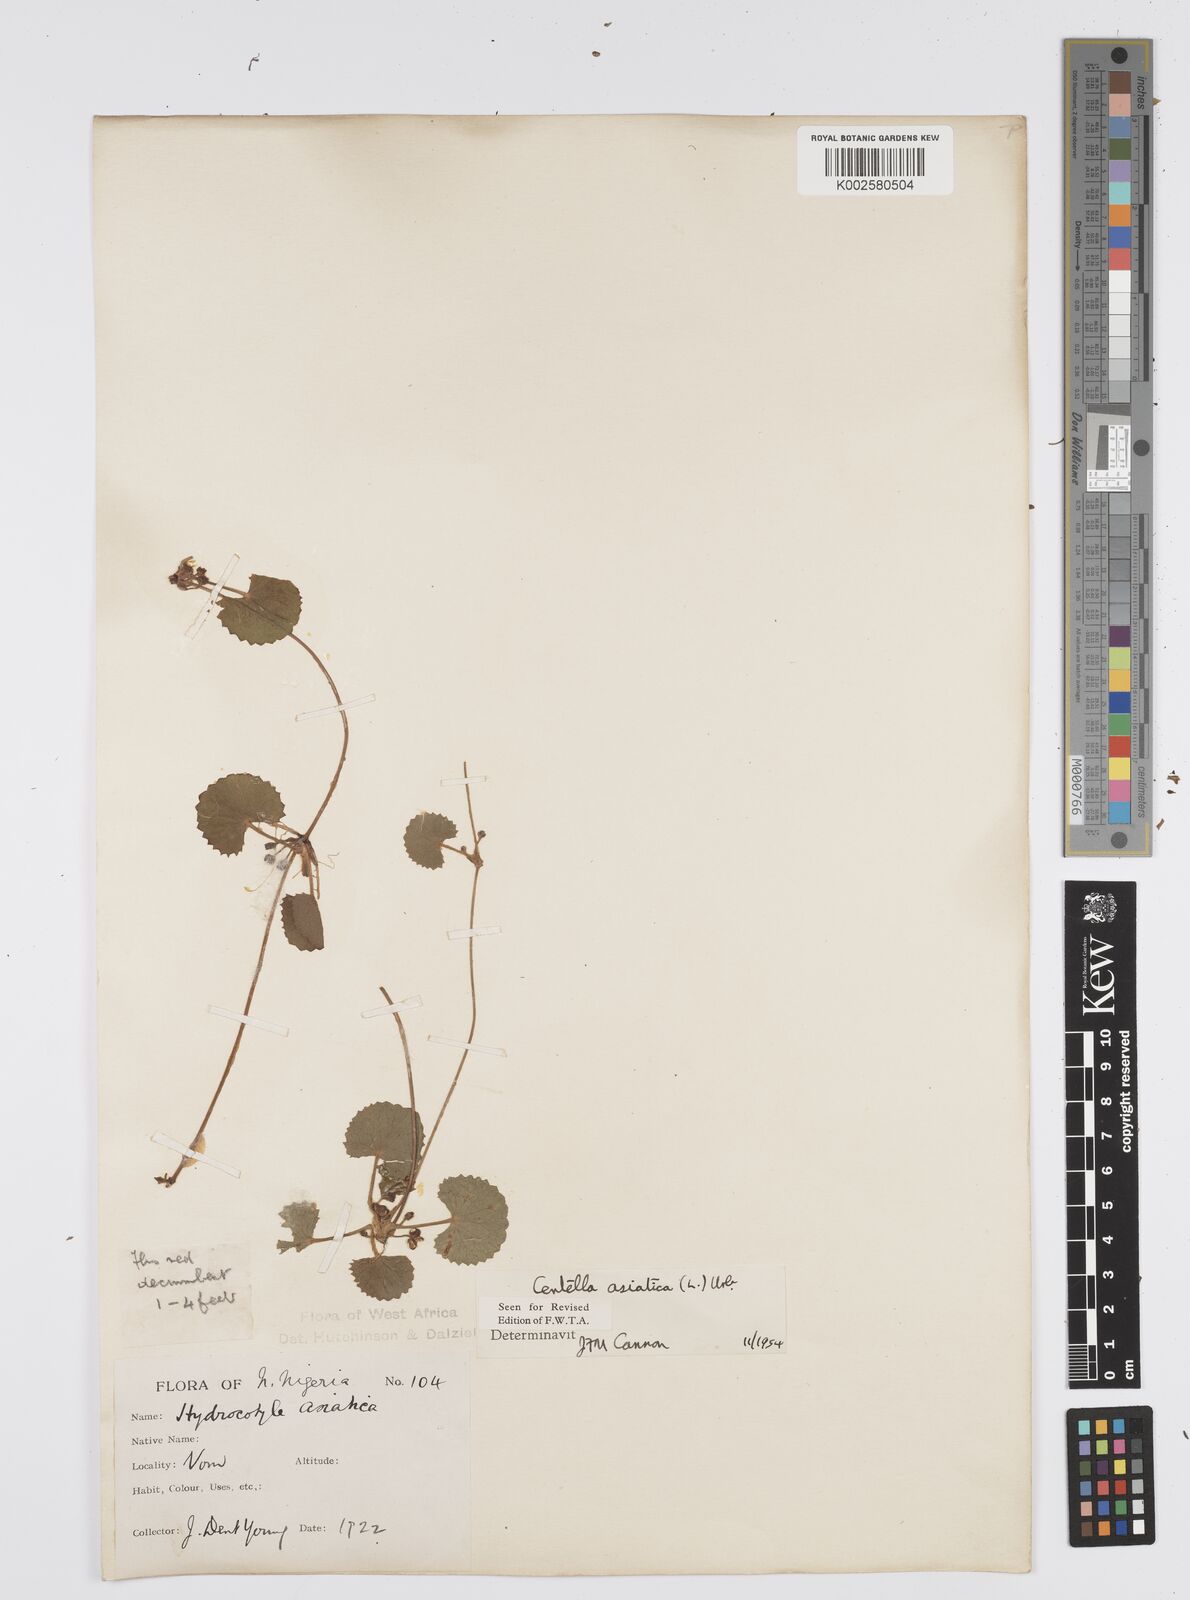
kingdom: Plantae
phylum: Tracheophyta
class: Magnoliopsida
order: Apiales
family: Apiaceae
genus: Centella
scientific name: Centella asiatica
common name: Spadeleaf
